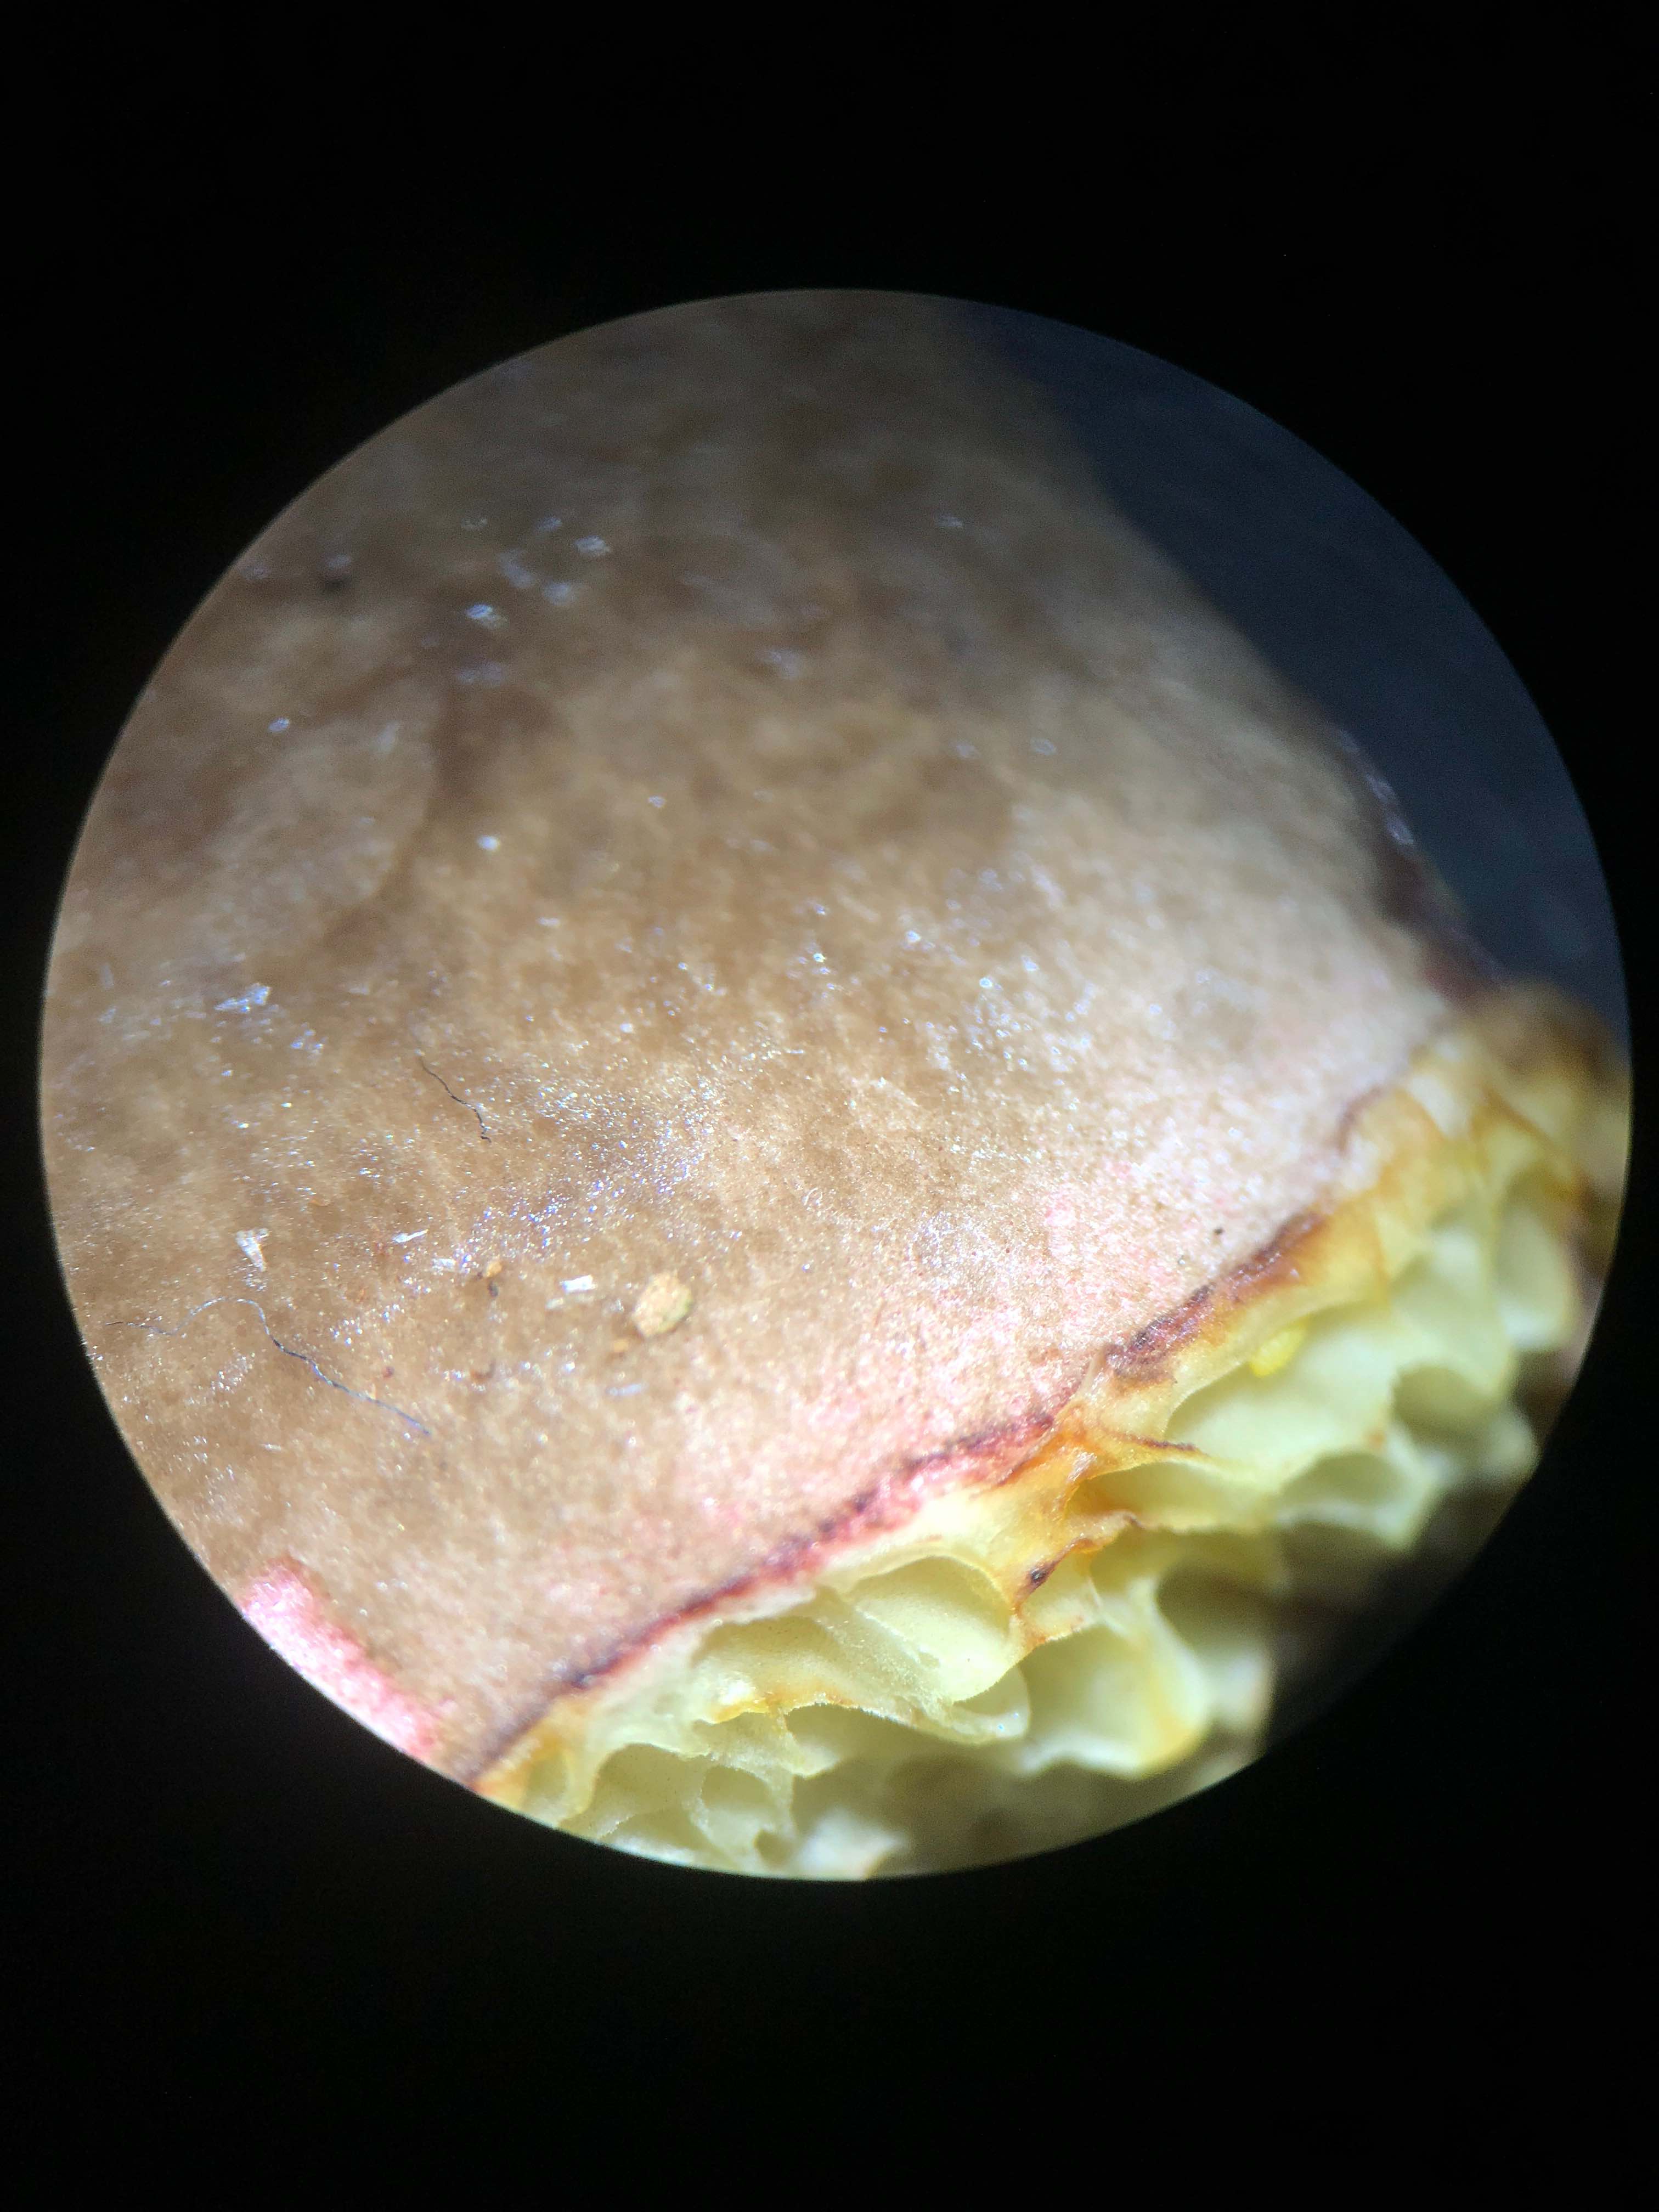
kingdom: Fungi
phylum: Basidiomycota
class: Agaricomycetes
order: Boletales
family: Boletaceae
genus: Xerocomellus
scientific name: Xerocomellus pruinatus
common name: dugget rørhat
